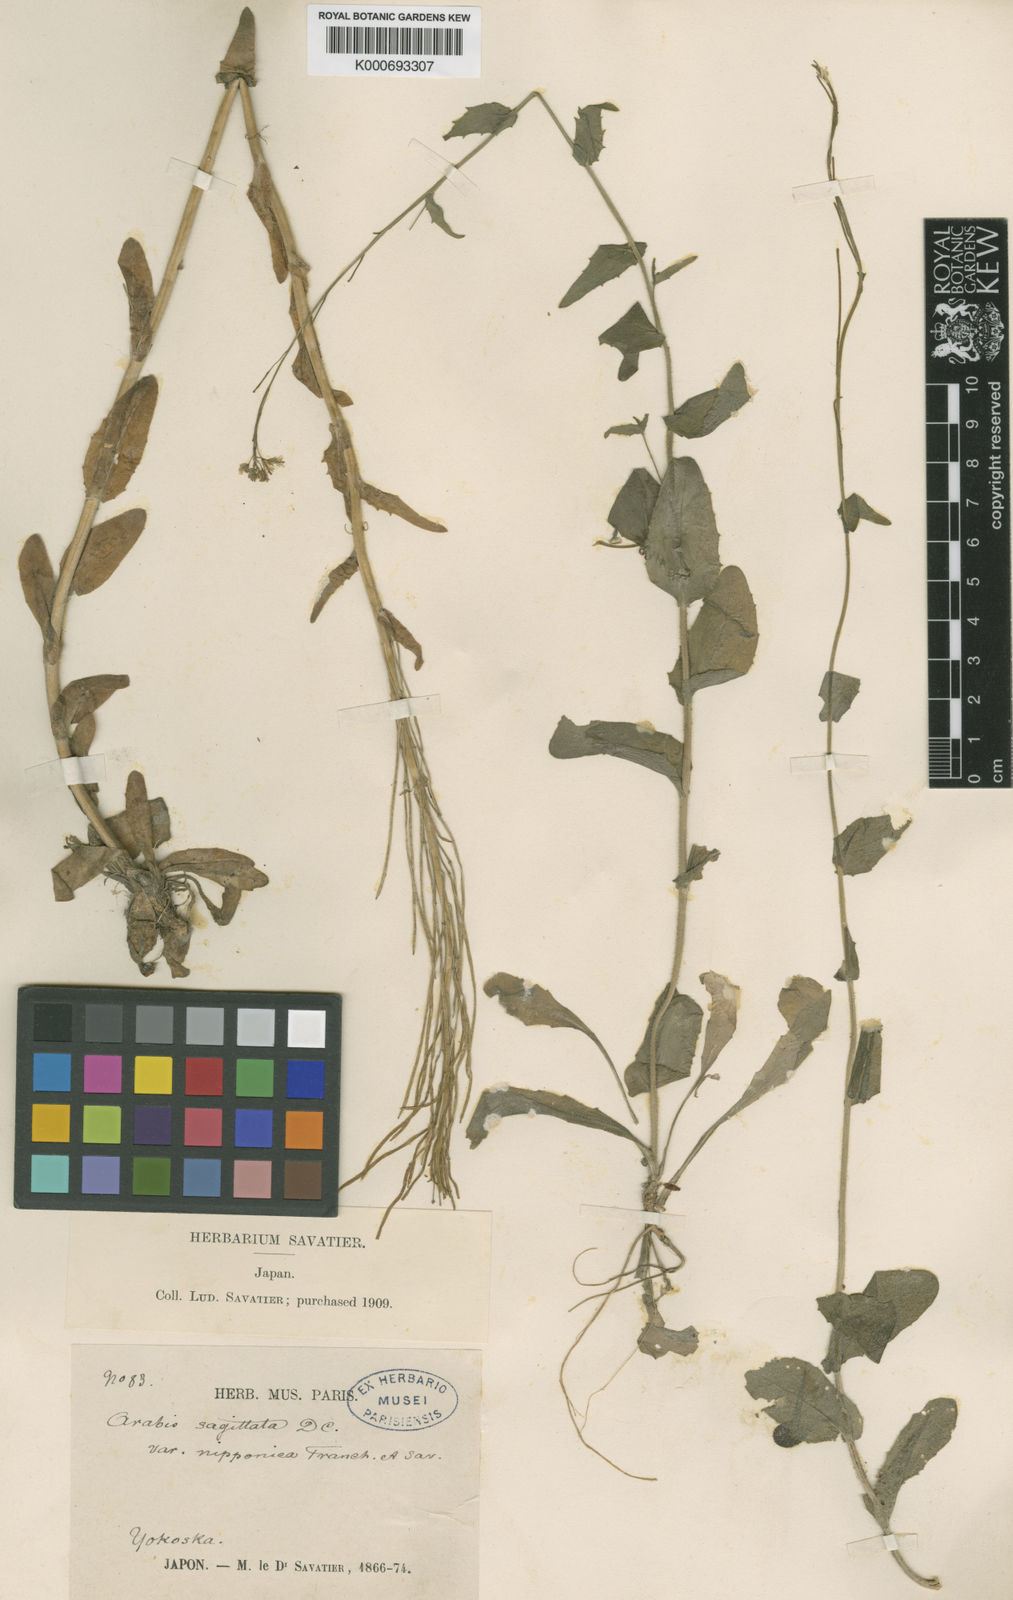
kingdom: Plantae
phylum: Tracheophyta
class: Magnoliopsida
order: Brassicales
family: Brassicaceae
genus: Arabis
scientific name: Arabis sagittata
